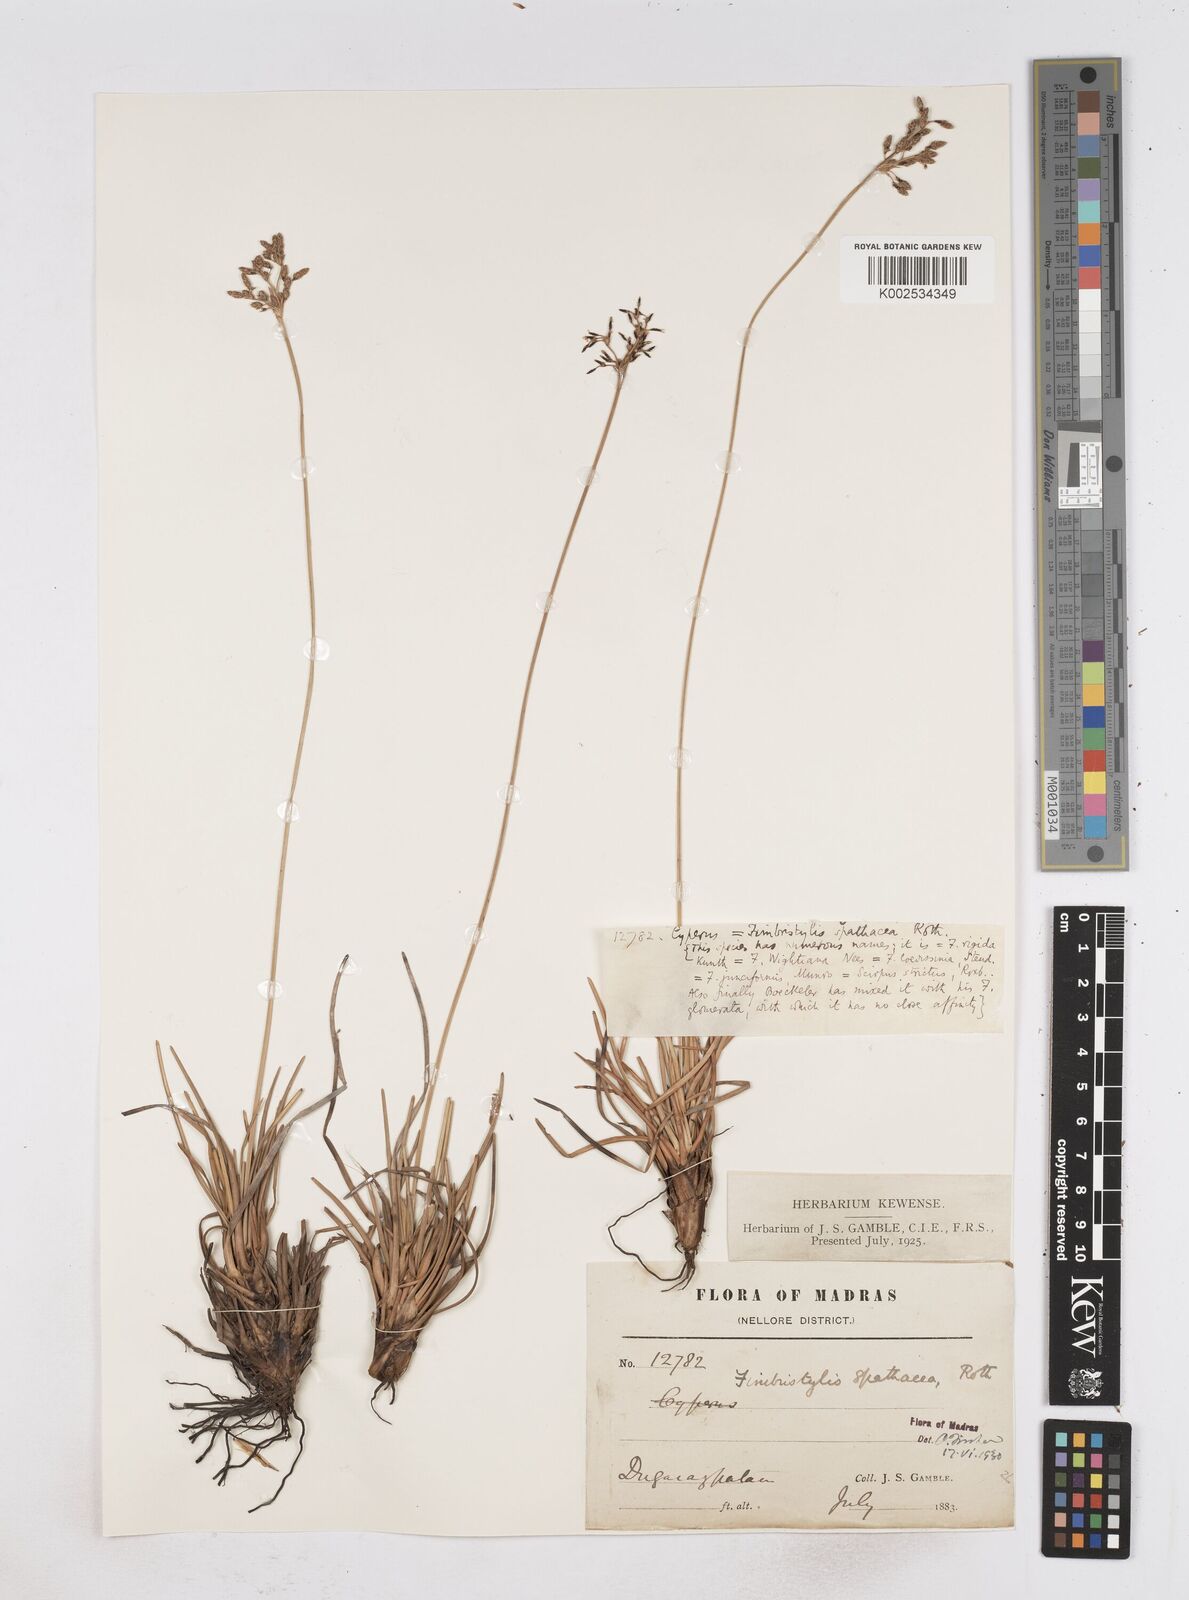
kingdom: Plantae
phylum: Tracheophyta
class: Liliopsida
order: Poales
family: Cyperaceae
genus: Fimbristylis
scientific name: Fimbristylis cymosa
